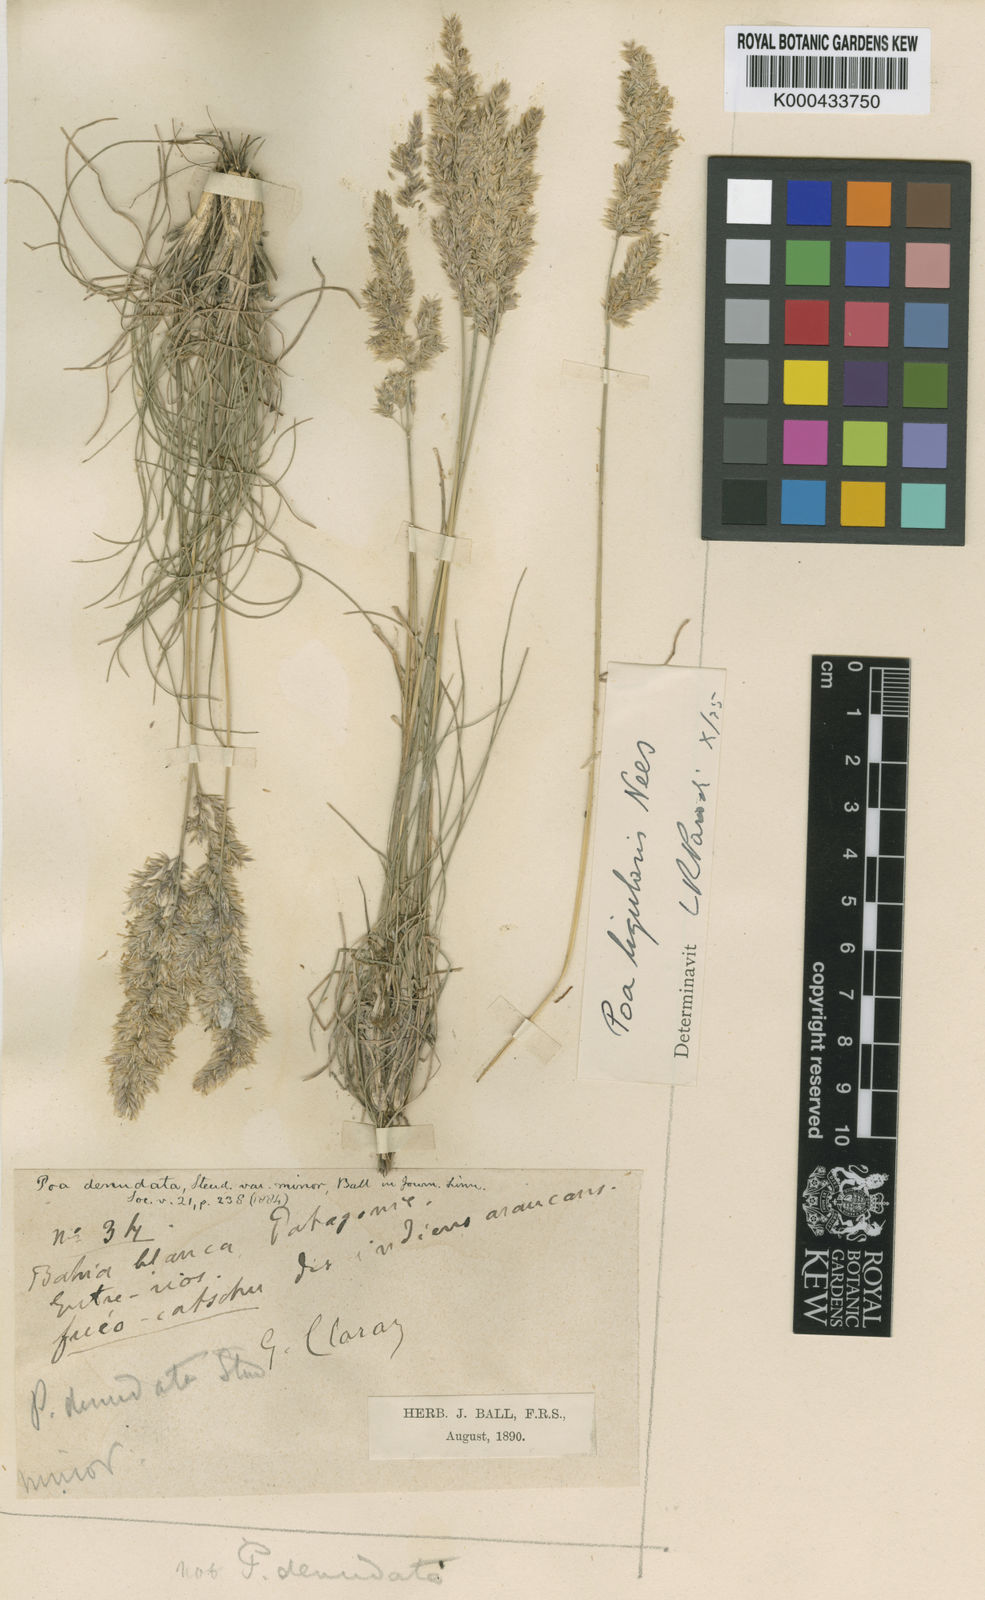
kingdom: Plantae
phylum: Tracheophyta
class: Liliopsida
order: Poales
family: Poaceae
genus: Poa
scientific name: Poa ligularis
